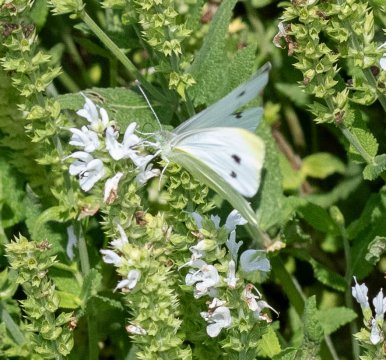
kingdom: Animalia
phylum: Arthropoda
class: Insecta
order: Lepidoptera
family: Pieridae
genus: Pieris
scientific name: Pieris rapae
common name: Cabbage White
